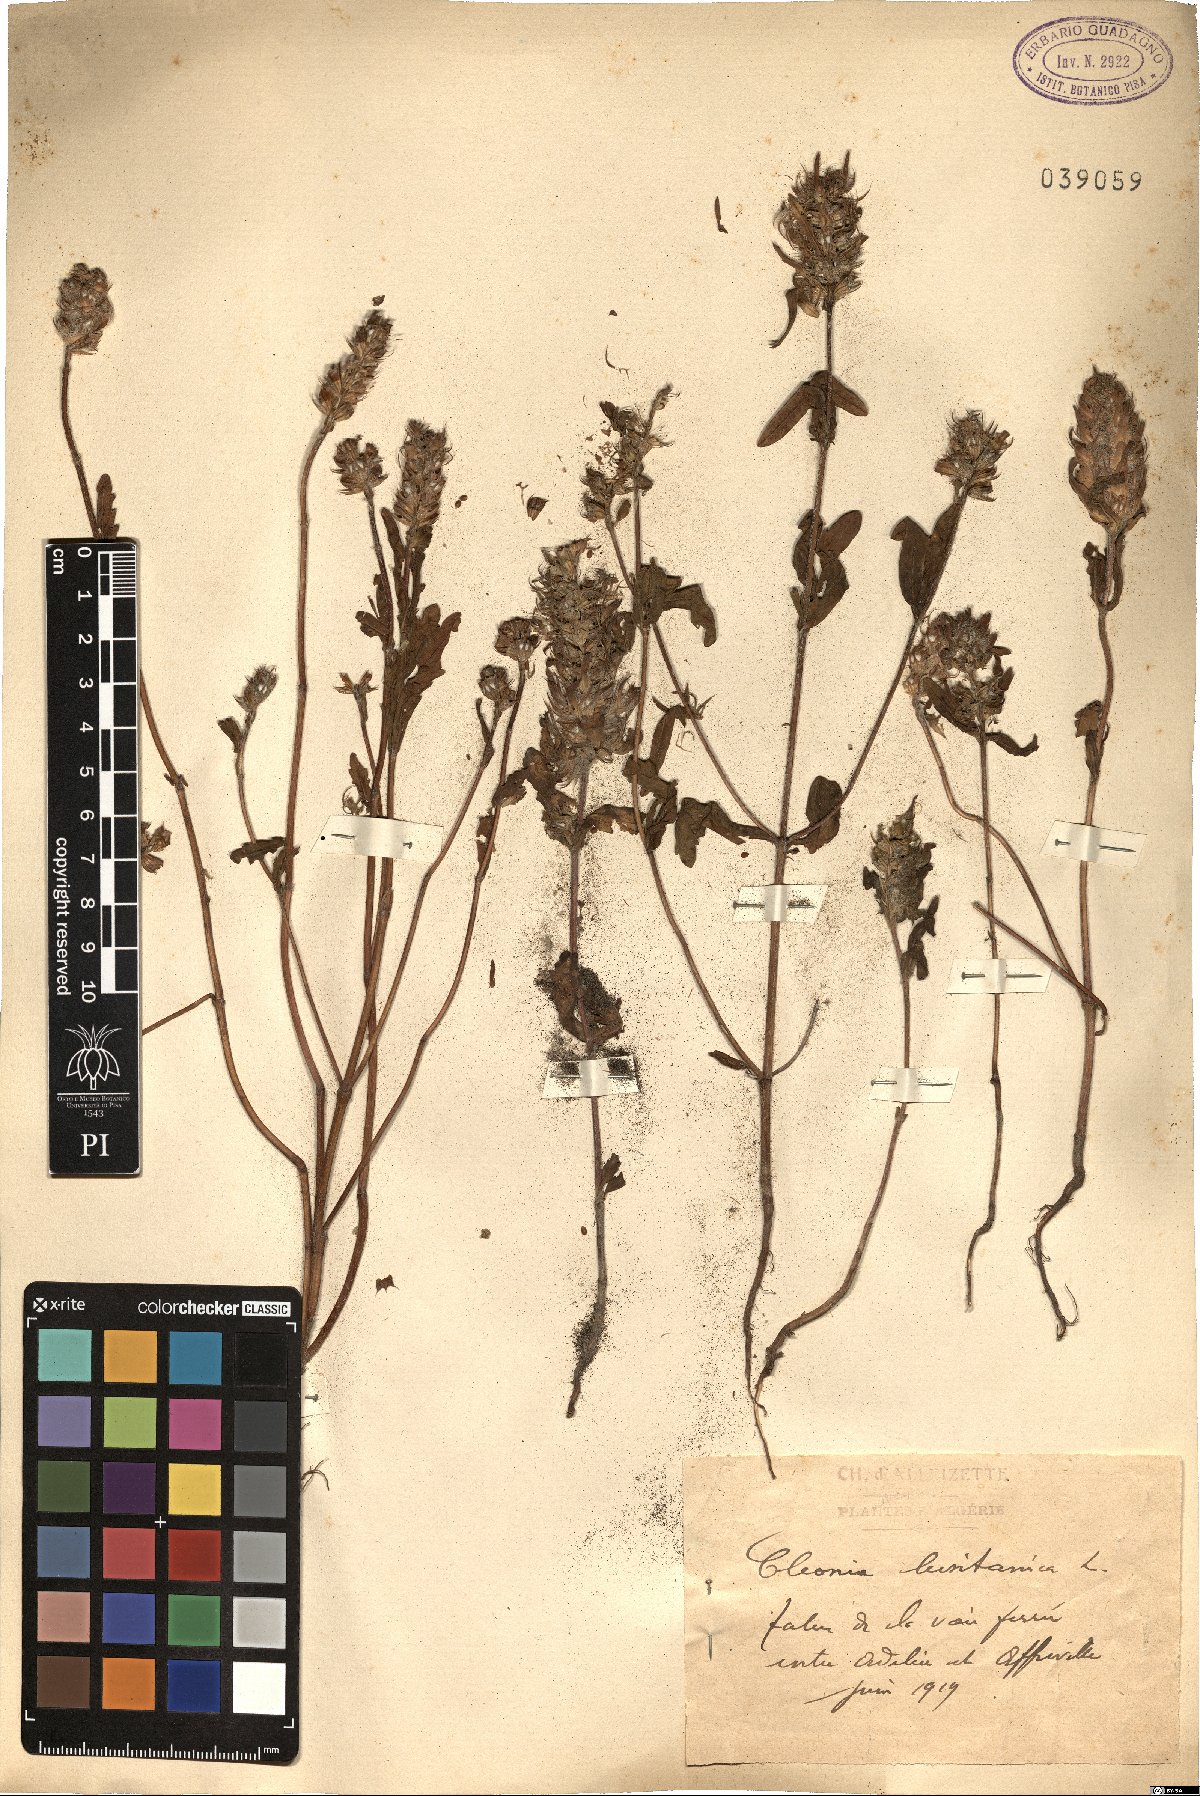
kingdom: Plantae
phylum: Tracheophyta
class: Magnoliopsida
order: Lamiales
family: Lamiaceae
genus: Cleonia
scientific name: Cleonia lusitanica
